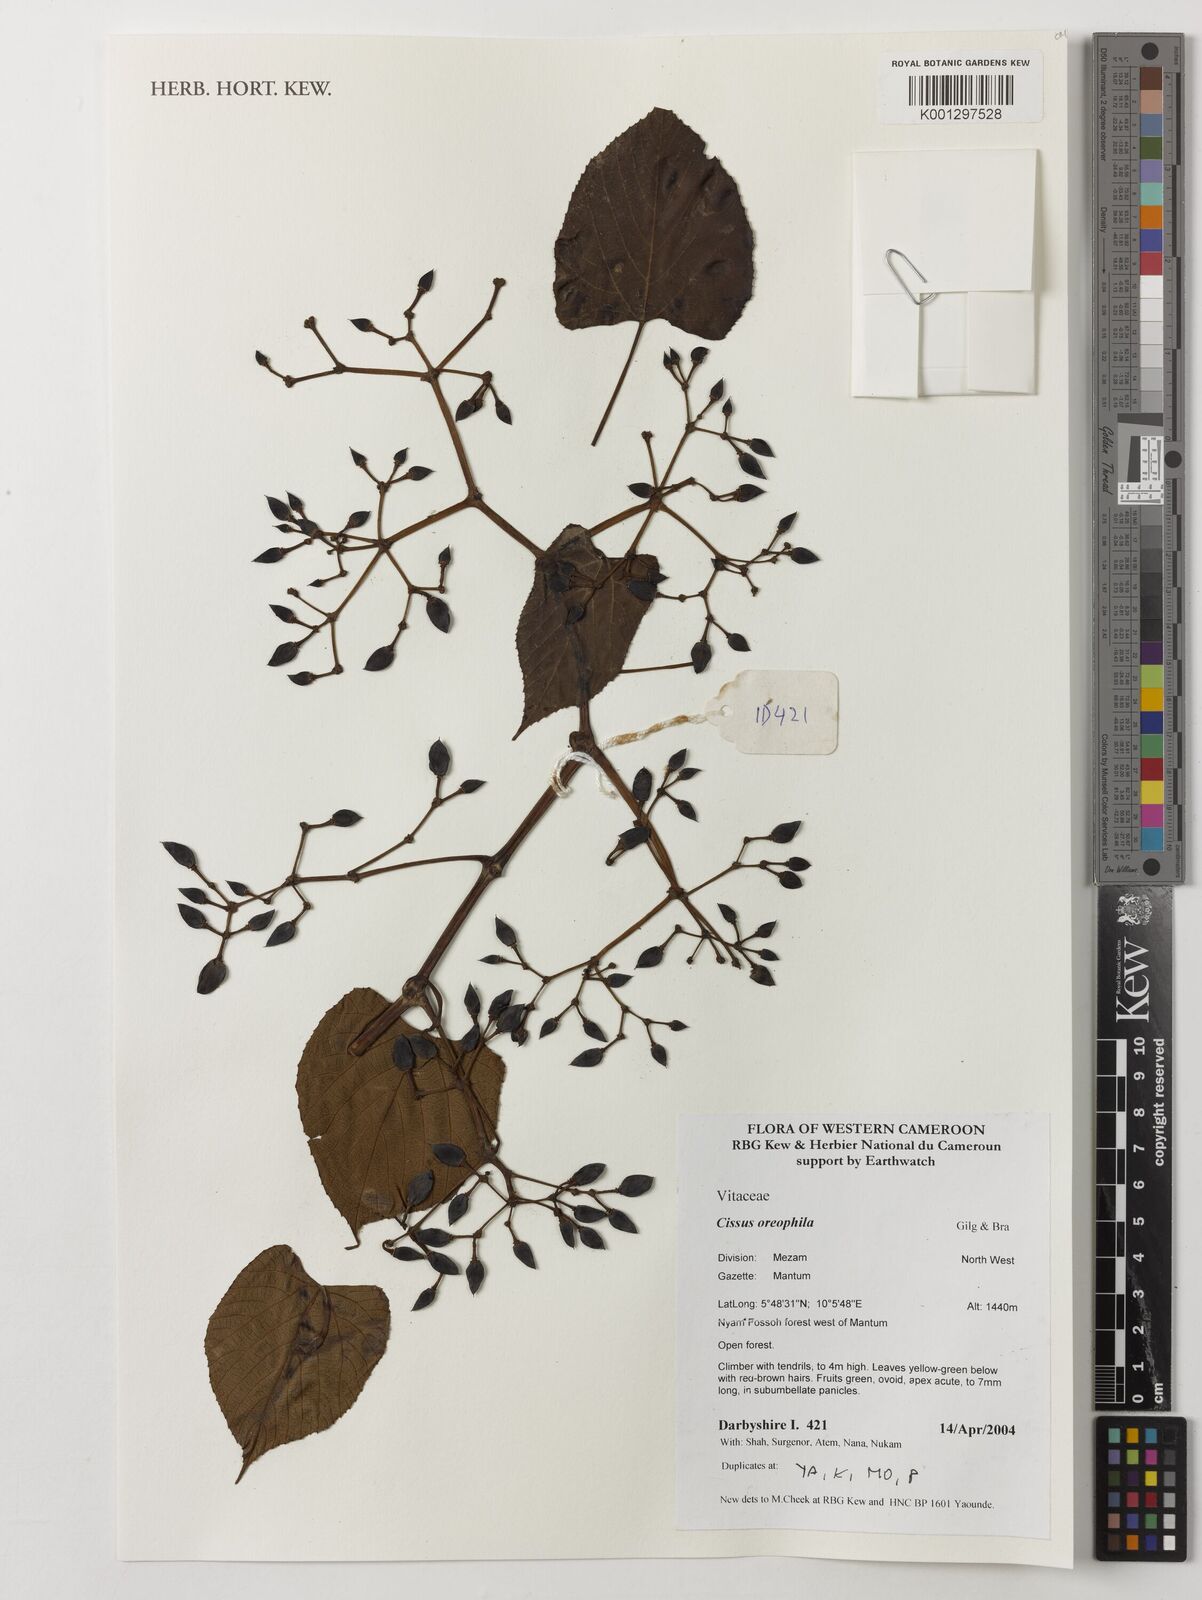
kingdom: Plantae
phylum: Tracheophyta
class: Magnoliopsida
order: Vitales
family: Vitaceae
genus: Cissus
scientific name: Cissus oreophila
